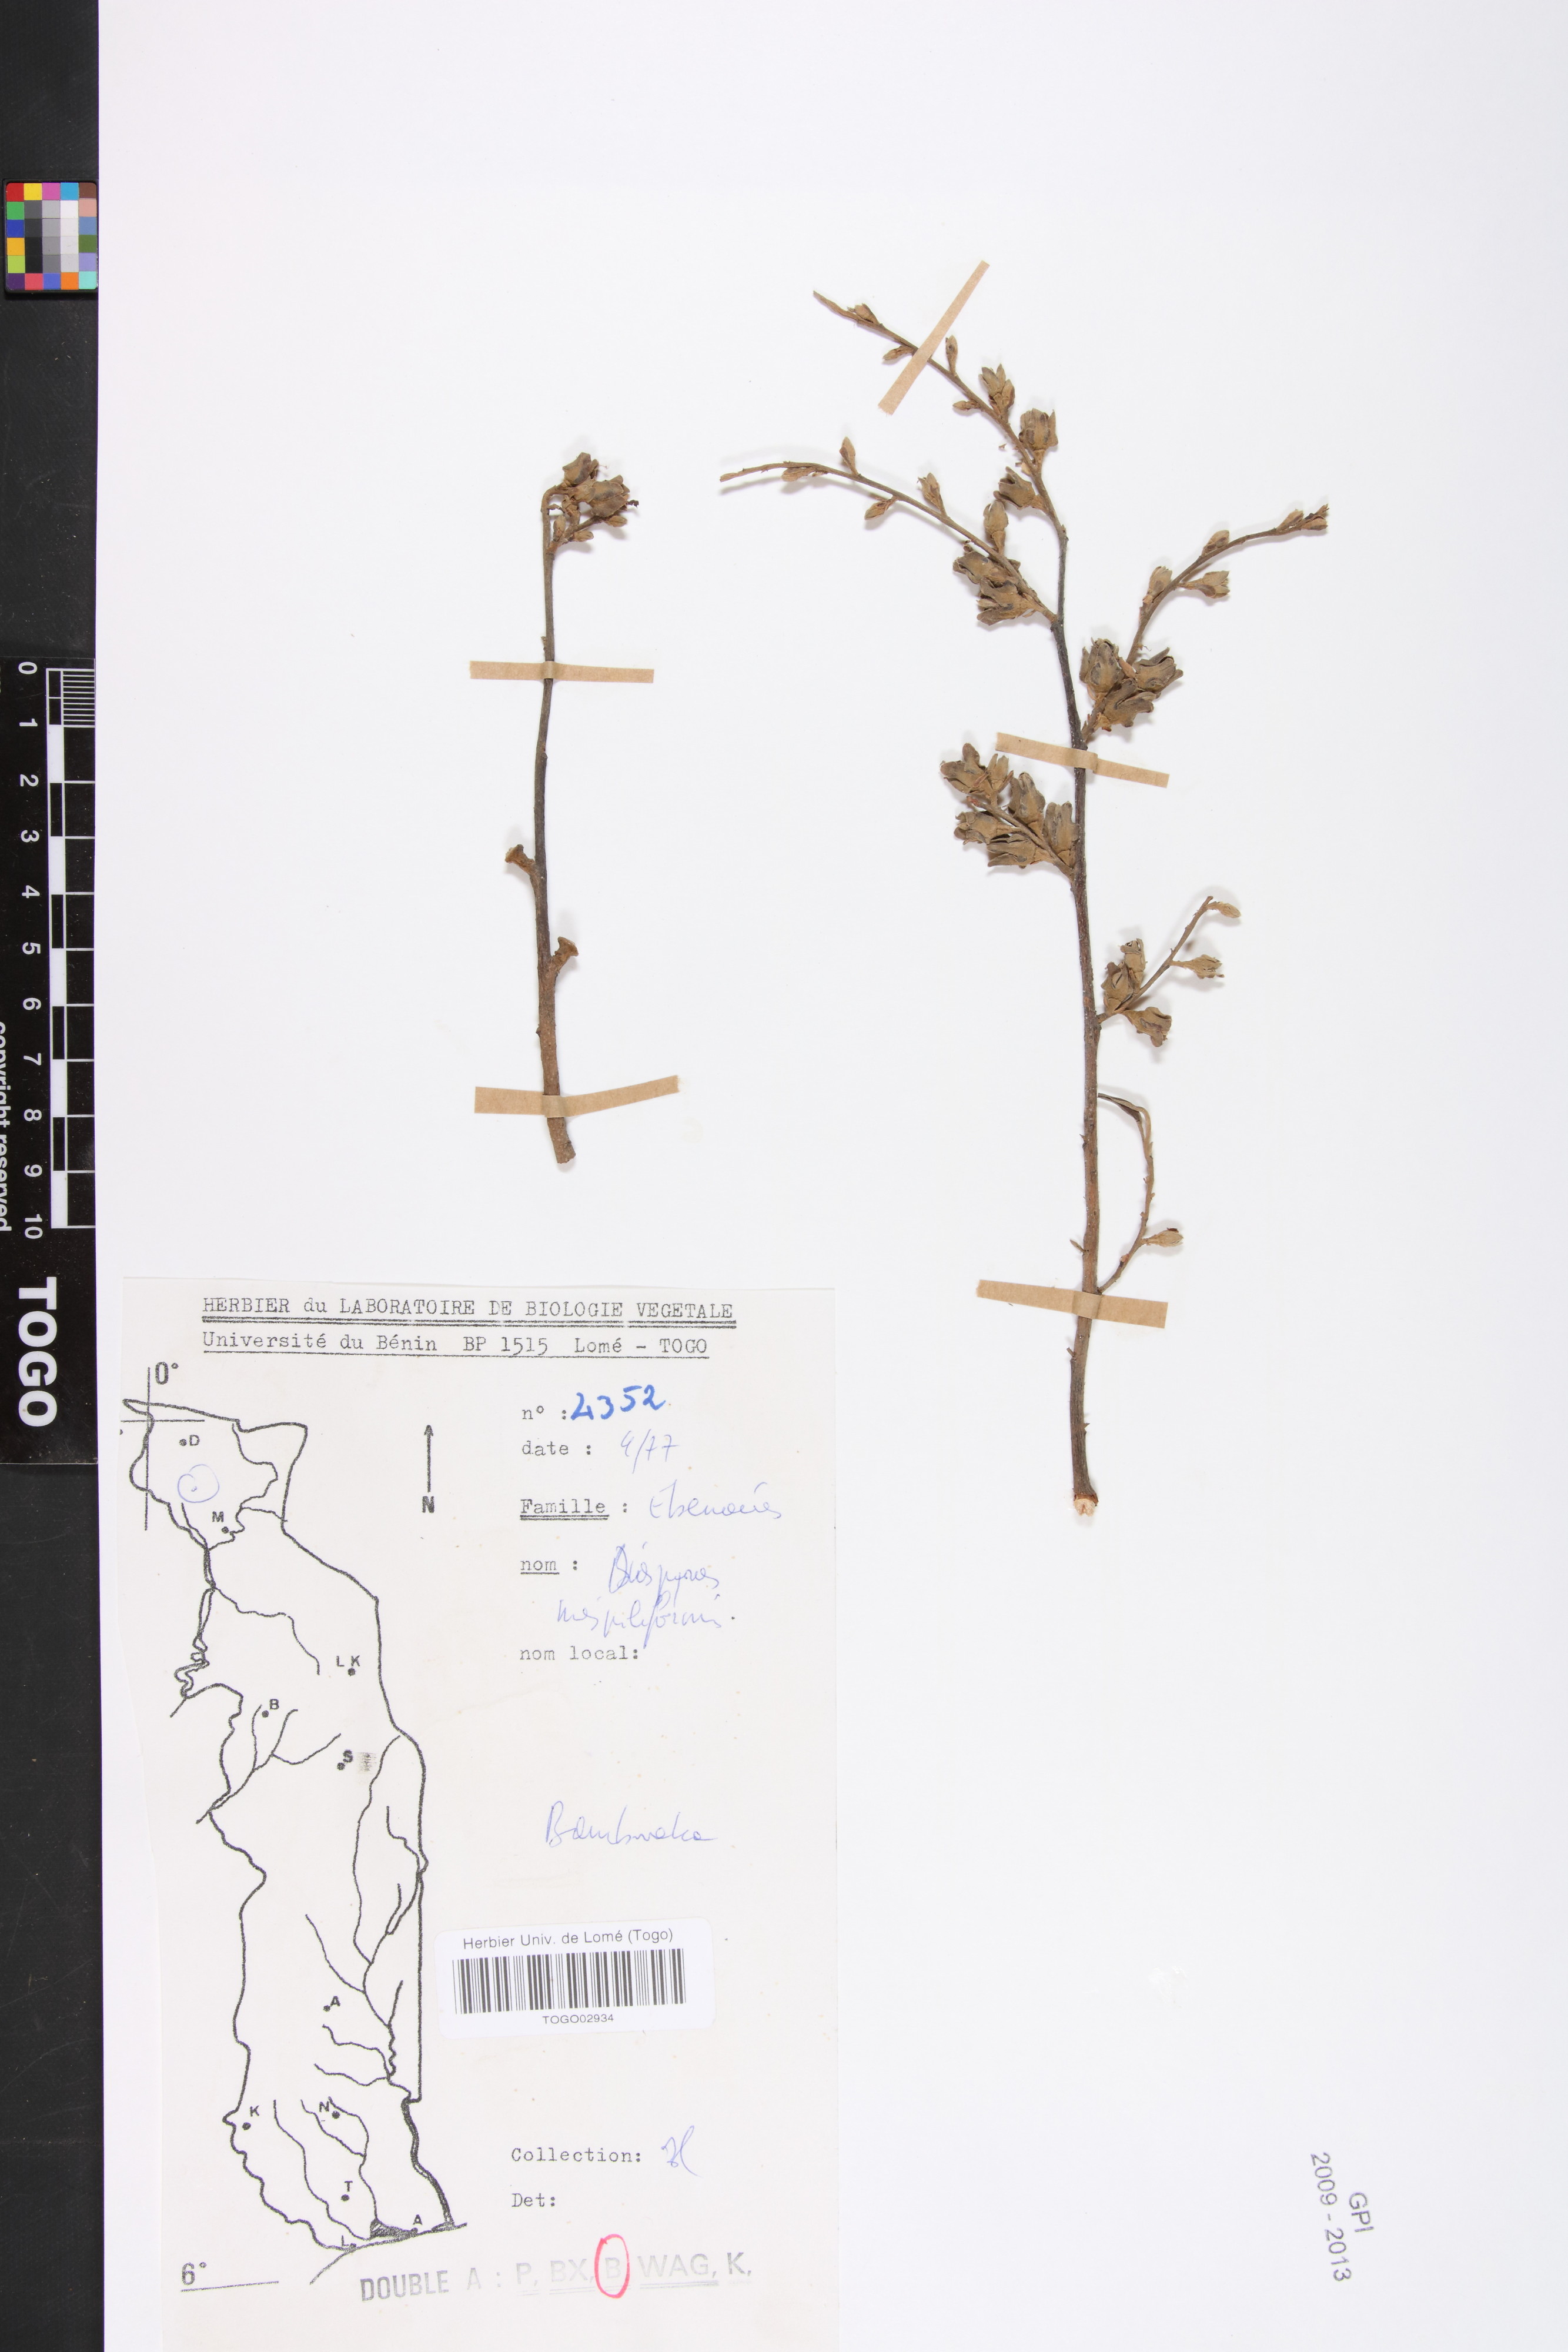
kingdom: Plantae
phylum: Tracheophyta
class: Magnoliopsida
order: Ericales
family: Ebenaceae
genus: Diospyros
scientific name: Diospyros mespiliformis
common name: Ebony diospyros
